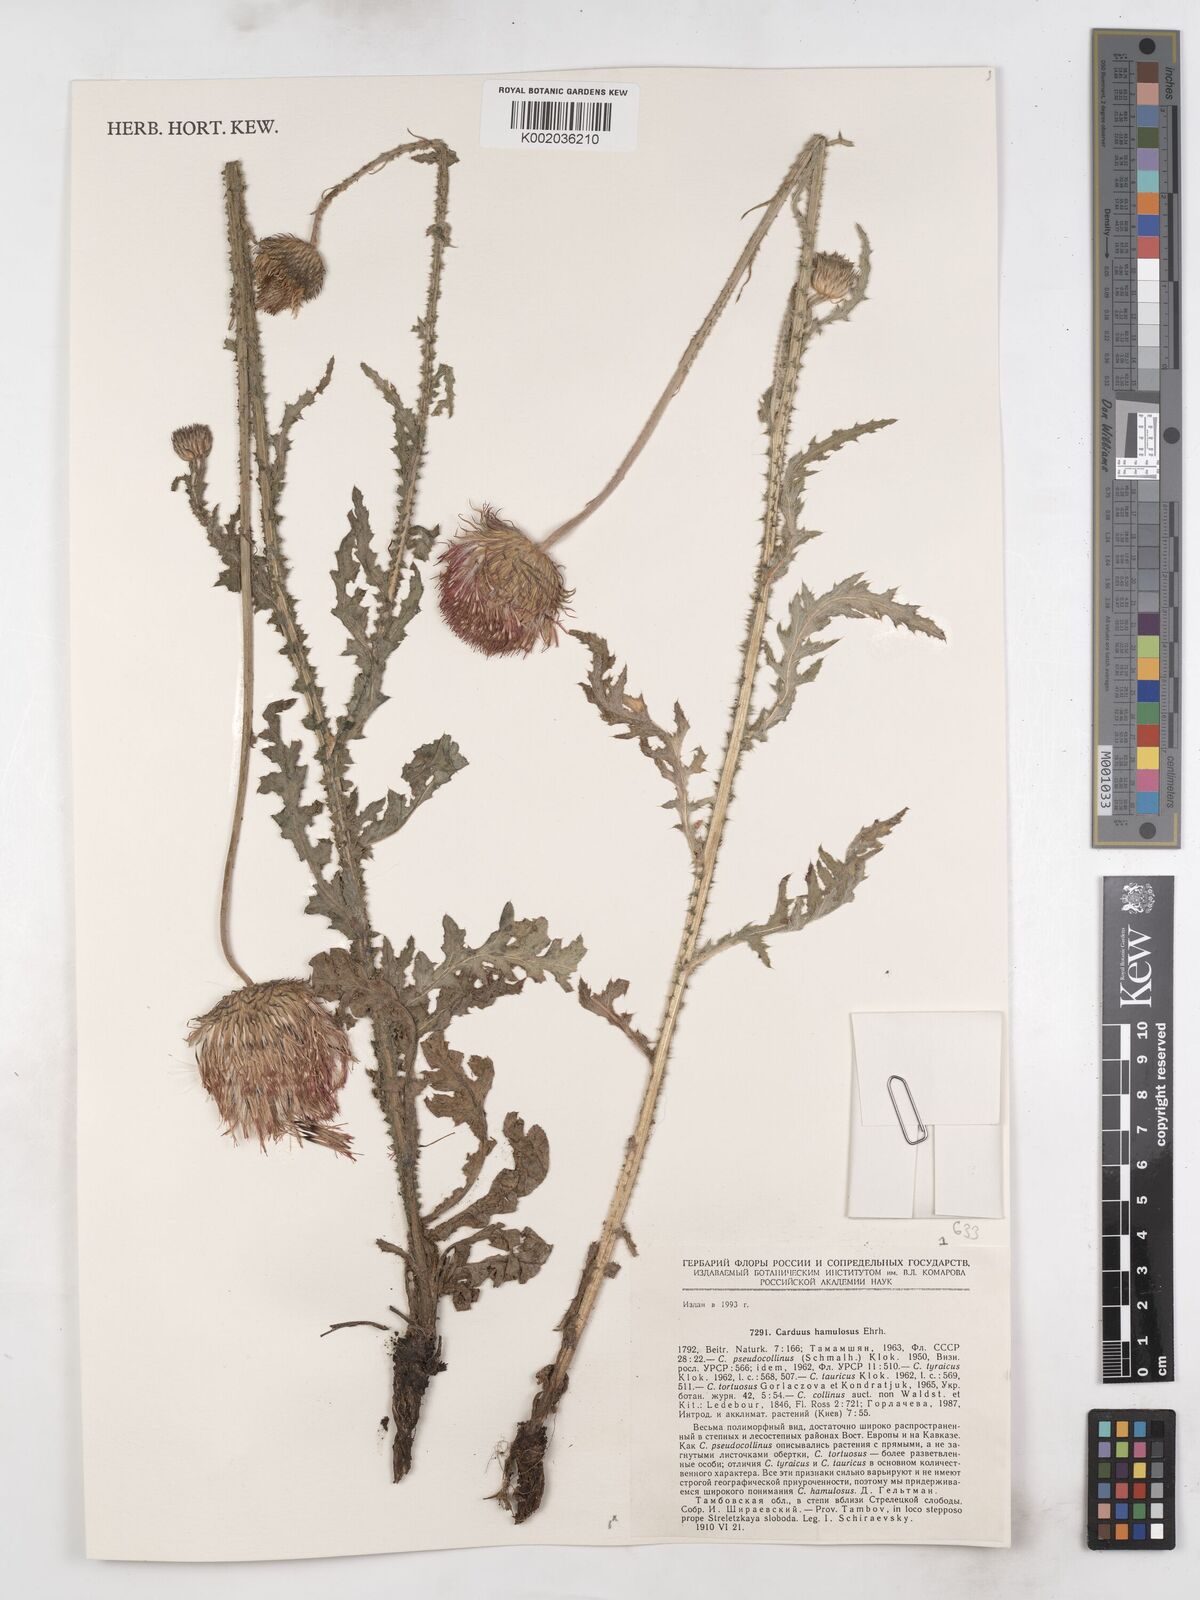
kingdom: Plantae
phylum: Tracheophyta
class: Magnoliopsida
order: Asterales
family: Asteraceae
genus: Carduus
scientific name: Carduus nutans
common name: Musk thistle
